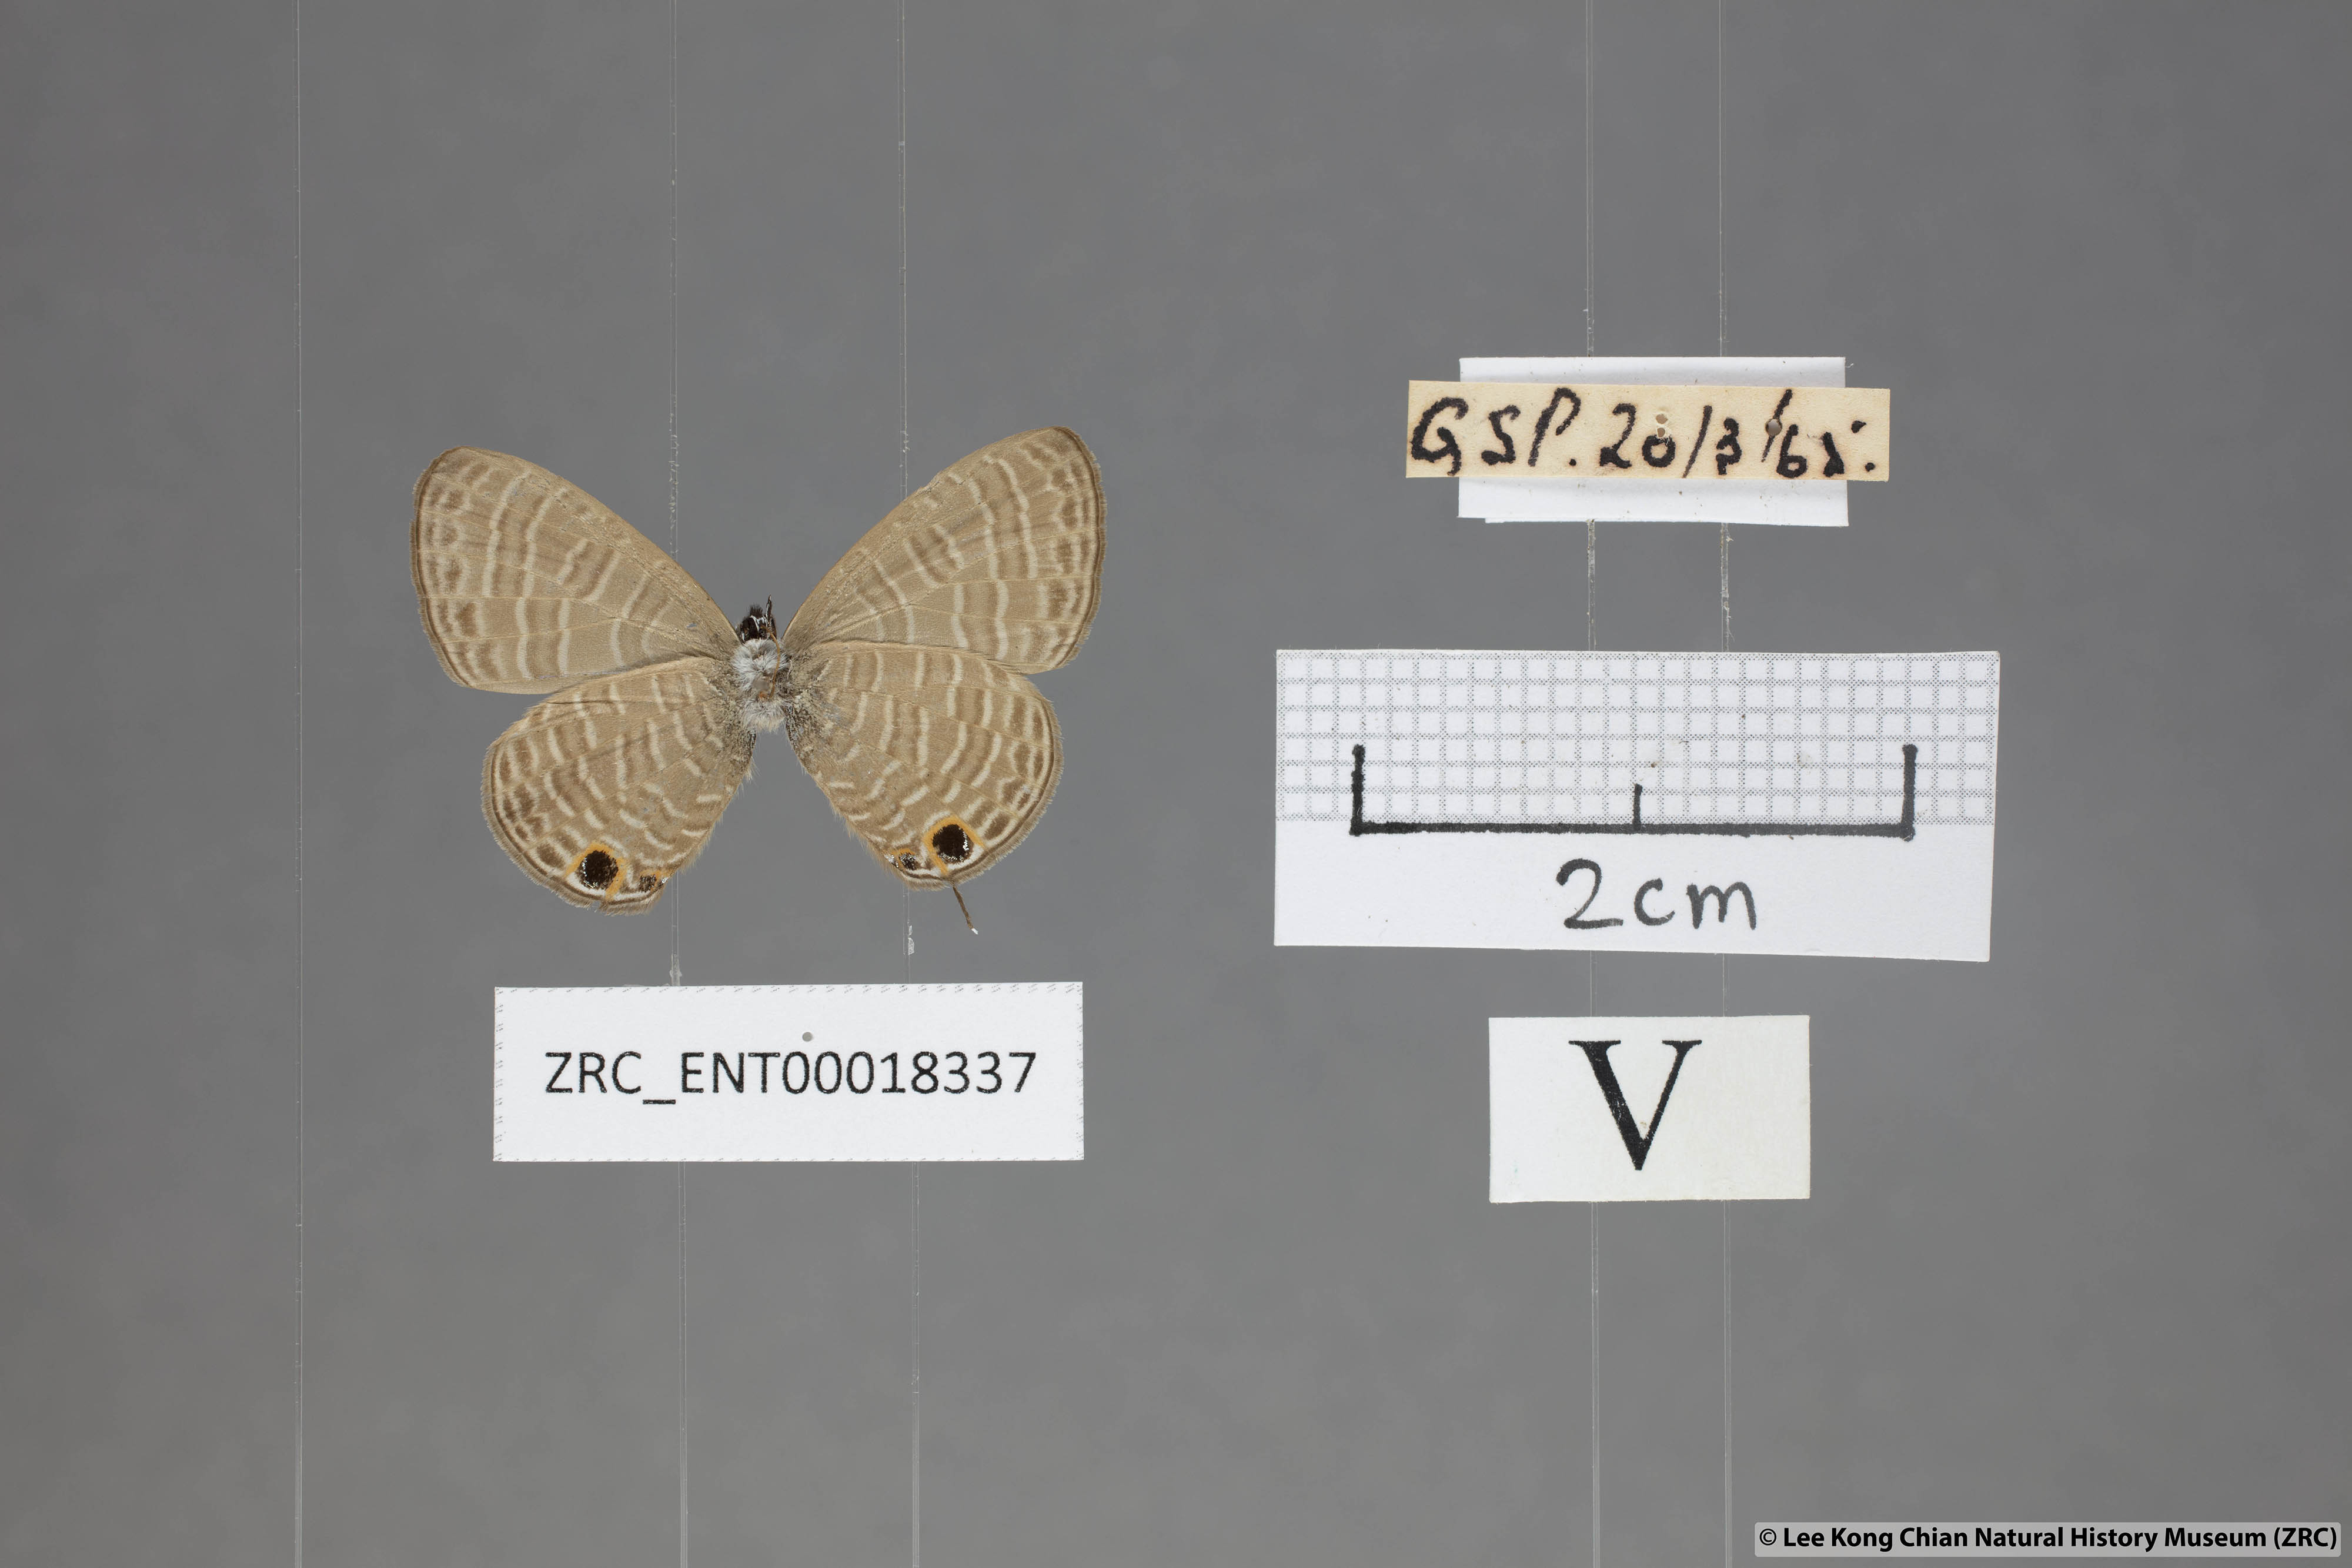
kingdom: Animalia
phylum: Arthropoda
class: Insecta
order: Lepidoptera
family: Lycaenidae
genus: Nacaduba
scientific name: Nacaduba calauria
